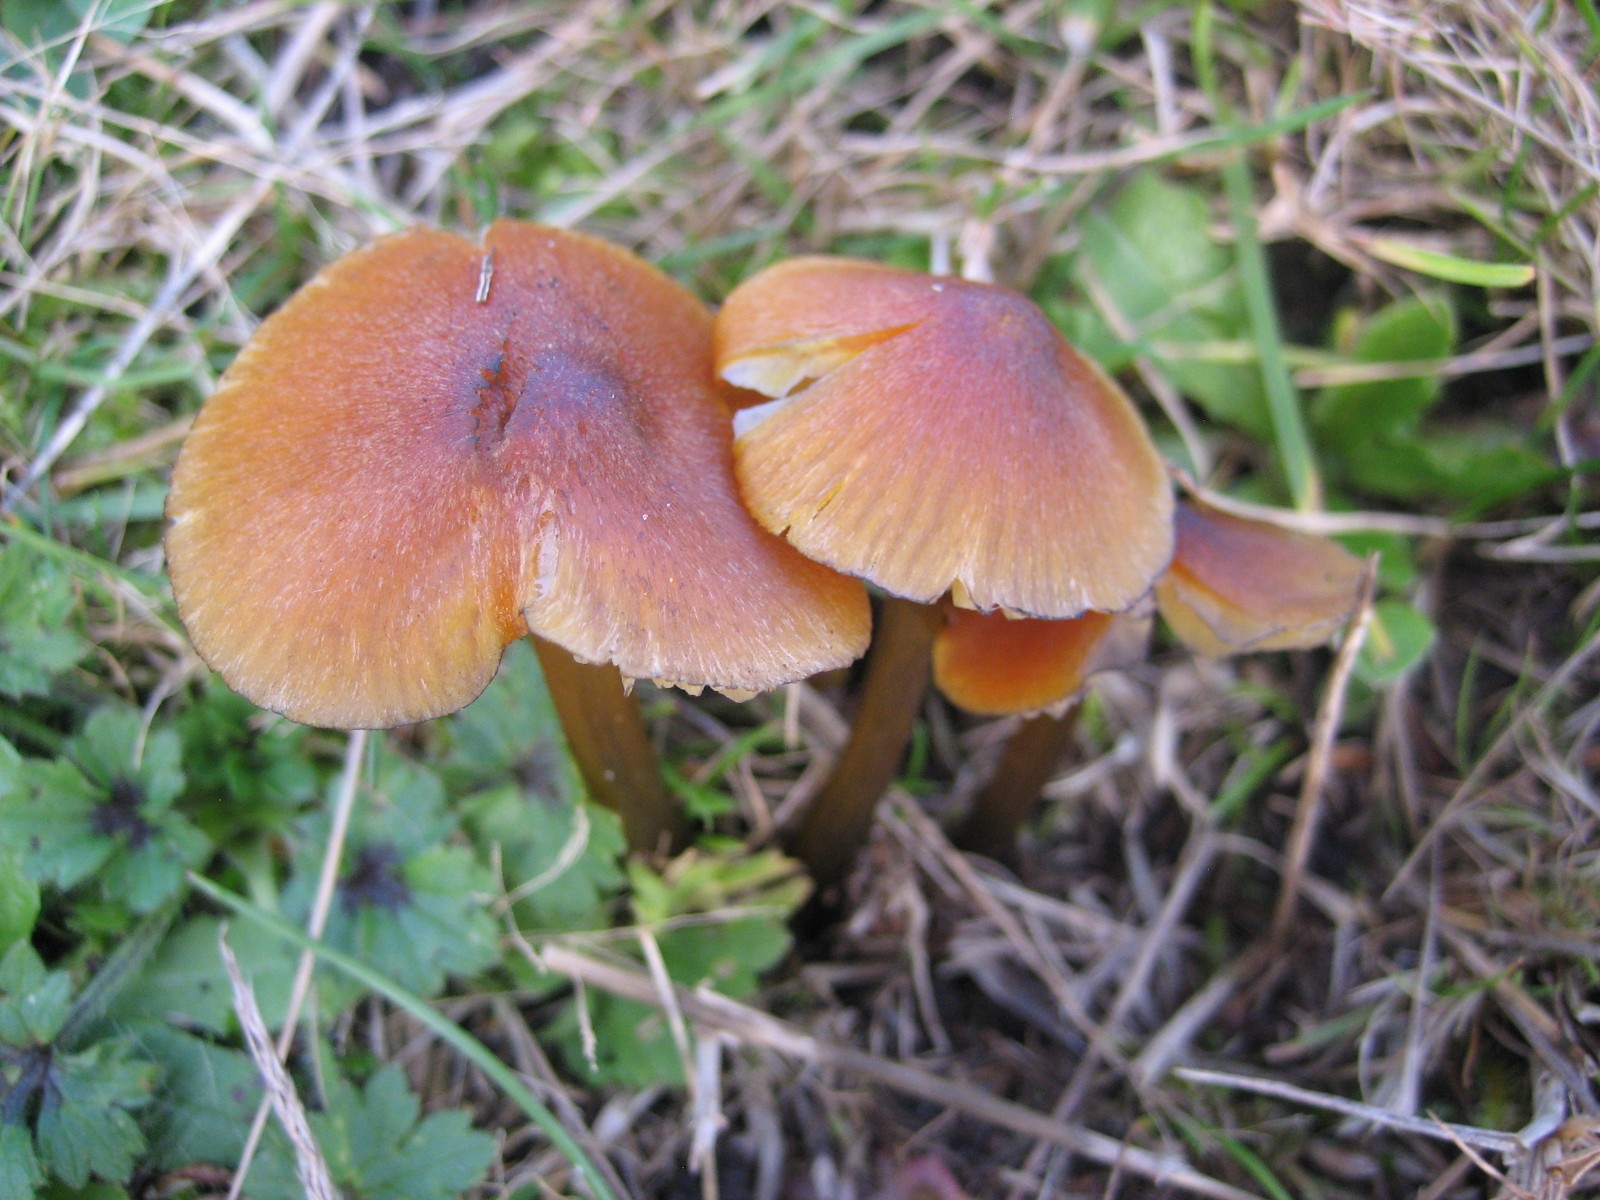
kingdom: Fungi
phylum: Basidiomycota
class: Agaricomycetes
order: Agaricales
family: Hygrophoraceae
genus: Hygrocybe
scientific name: Hygrocybe conica
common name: kegle-vokshat
